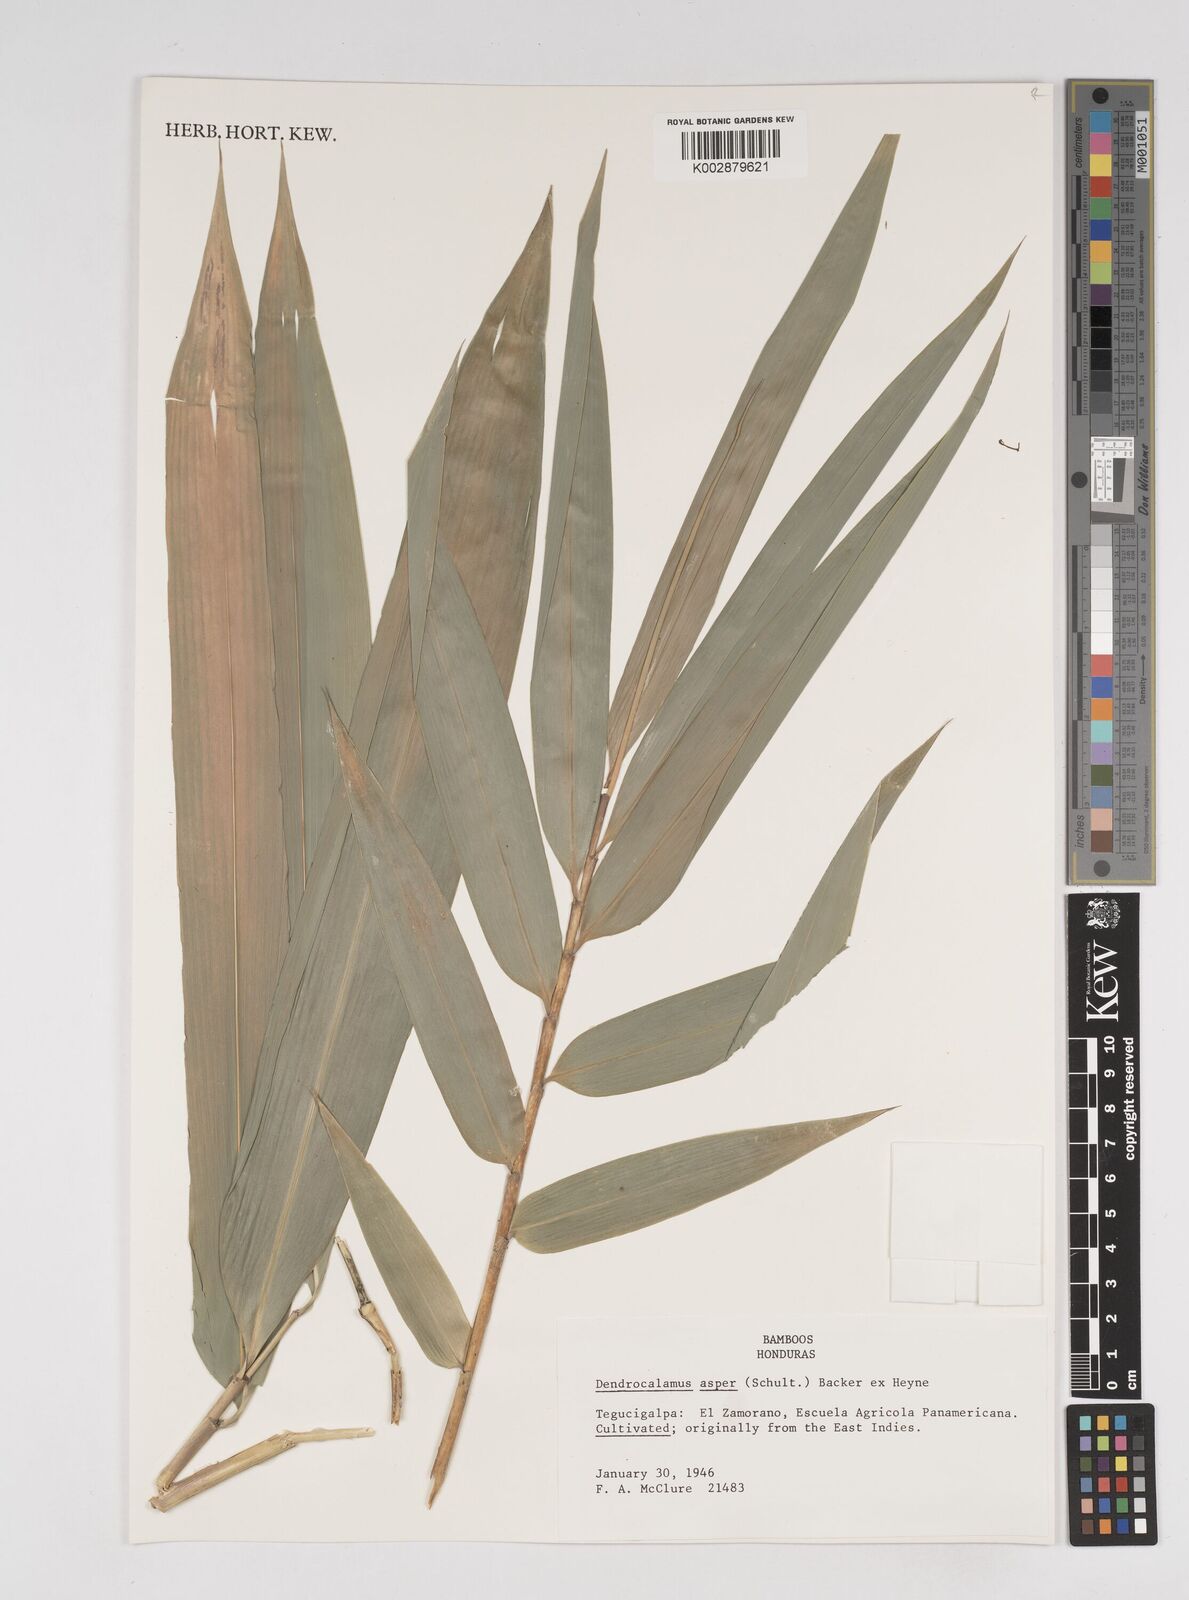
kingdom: Plantae
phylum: Tracheophyta
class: Liliopsida
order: Poales
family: Poaceae
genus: Dendrocalamus
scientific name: Dendrocalamus asper
